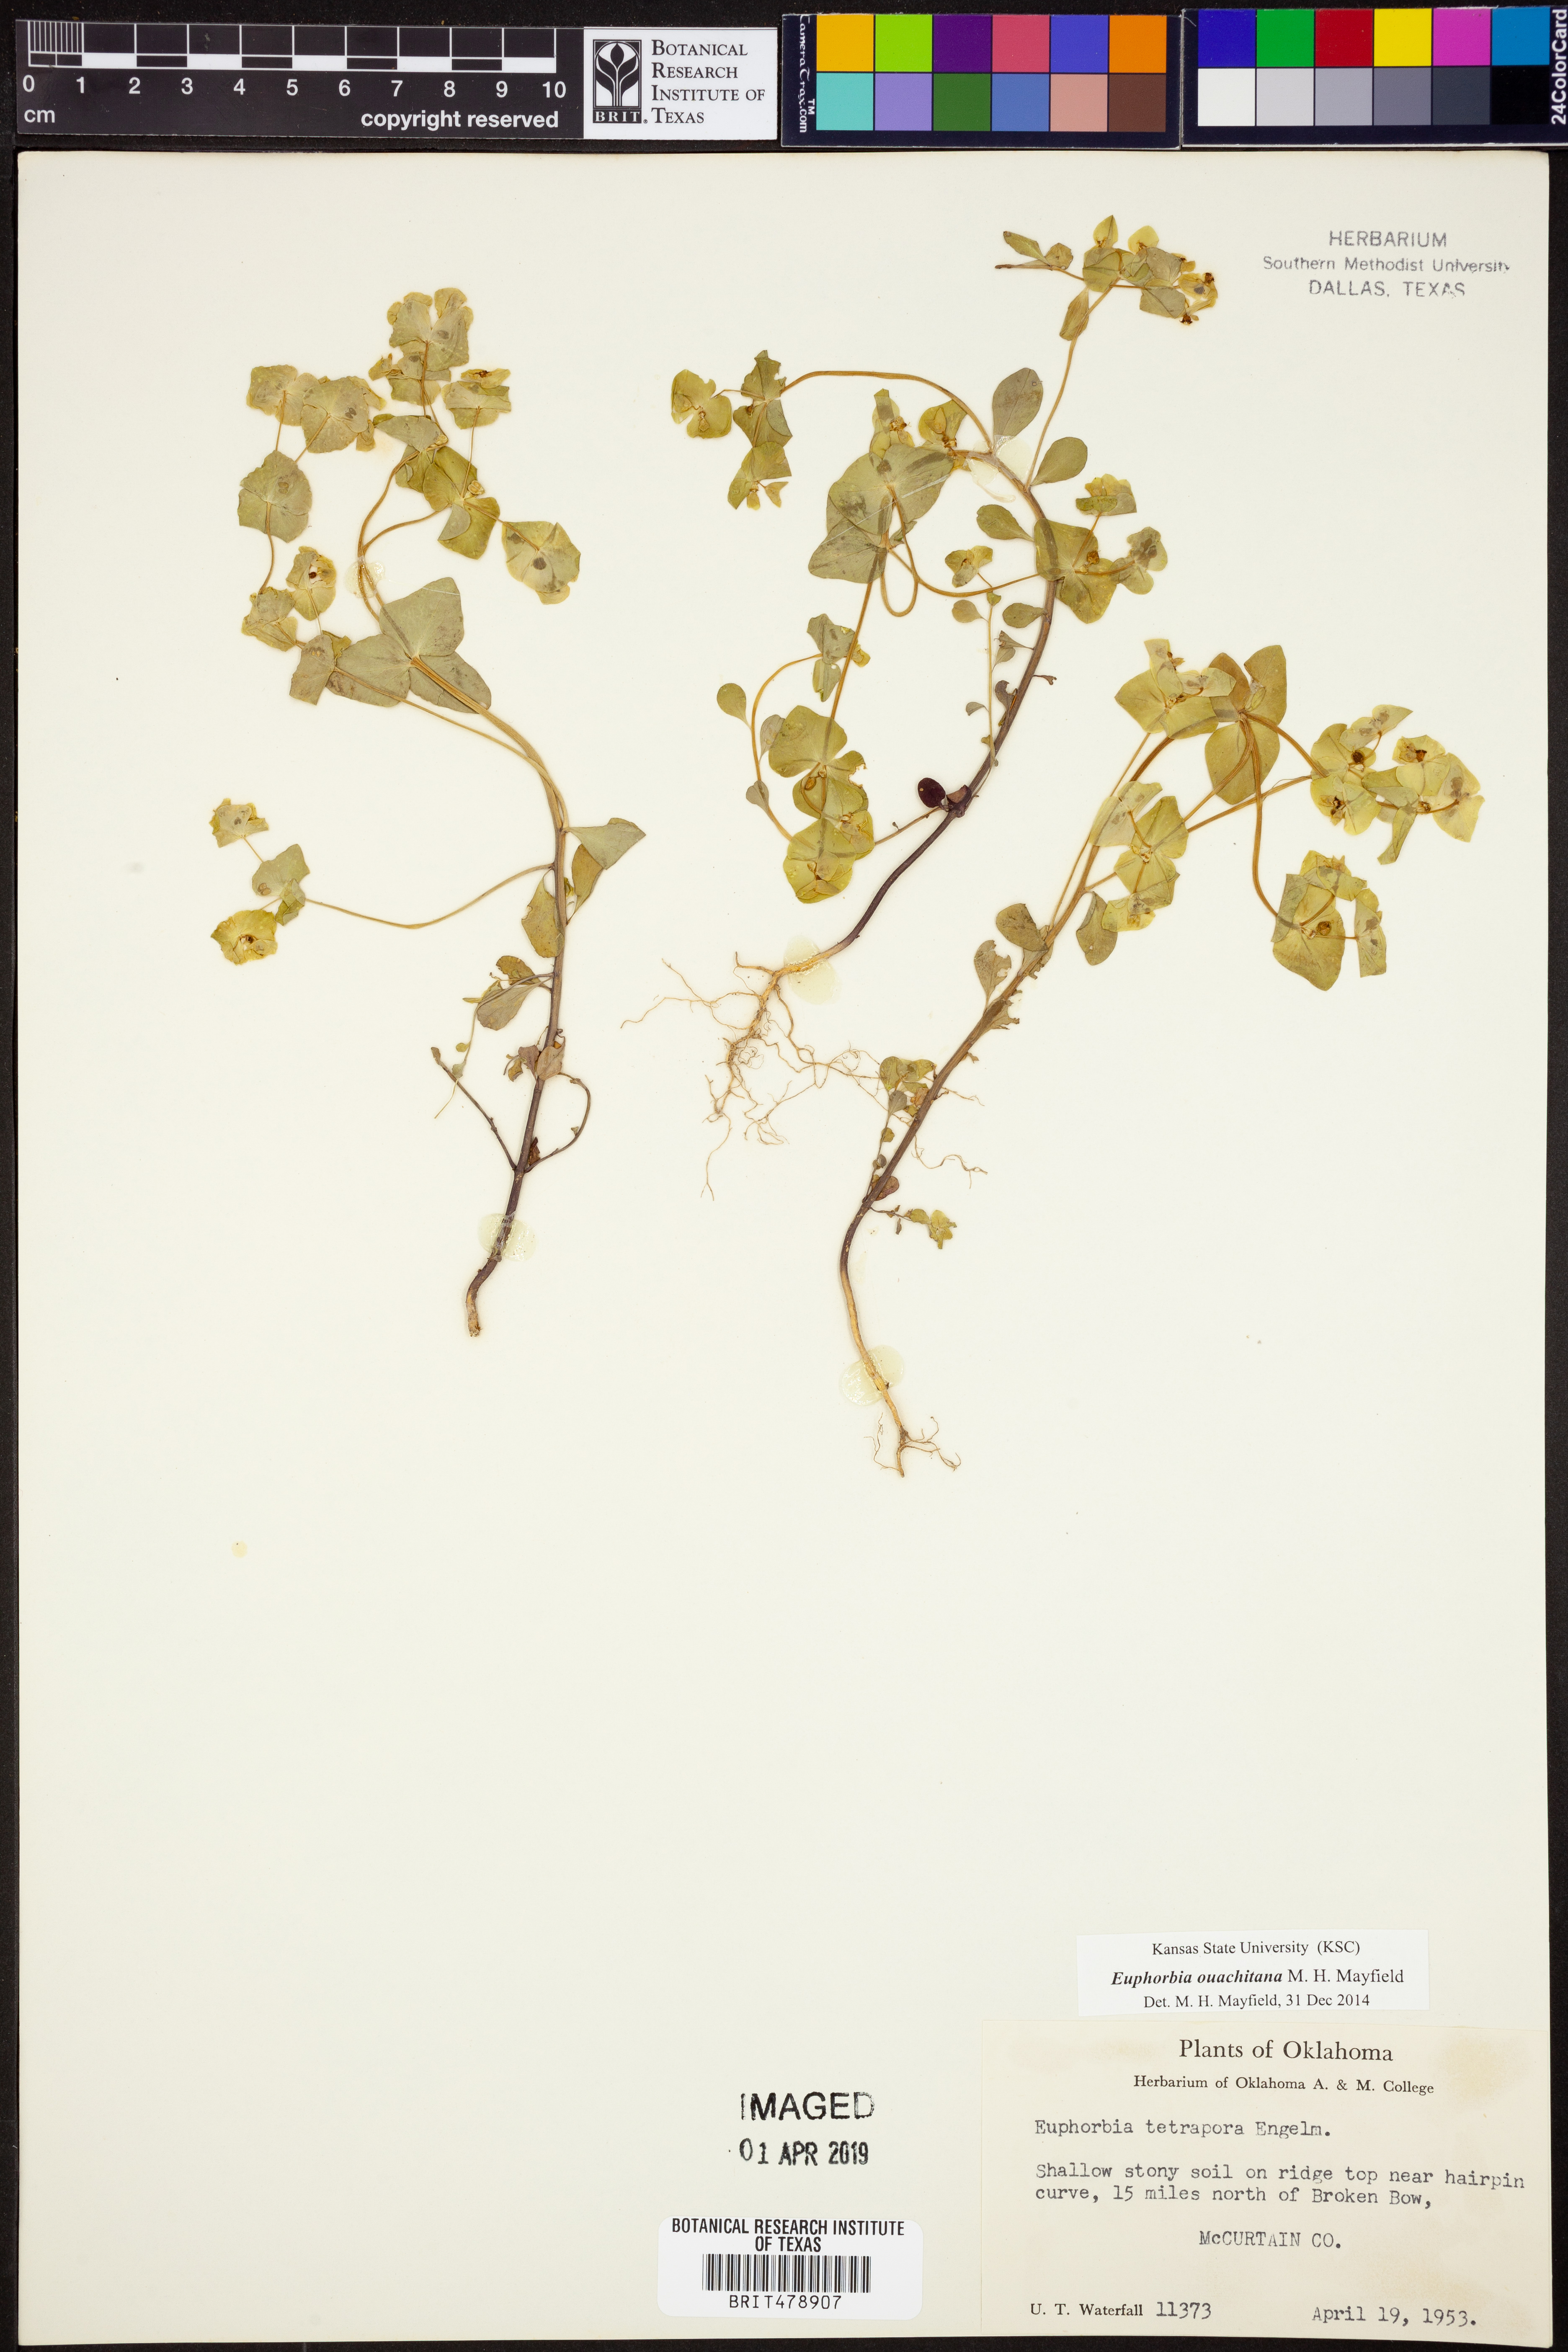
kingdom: Plantae
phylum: Tracheophyta
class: Magnoliopsida
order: Malpighiales
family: Euphorbiaceae
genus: Euphorbia
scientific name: Euphorbia ouachitana
